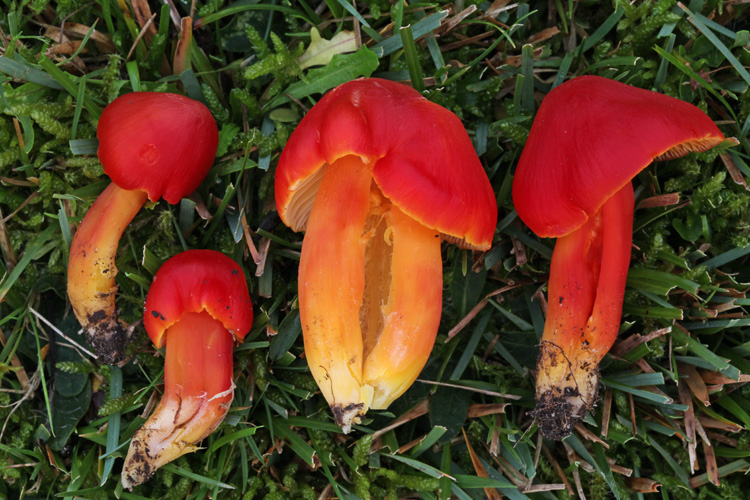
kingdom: Fungi
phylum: Basidiomycota
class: Agaricomycetes
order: Agaricales
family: Hygrophoraceae
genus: Hygrocybe
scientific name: Hygrocybe splendidissima
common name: knaldrød vokshat
